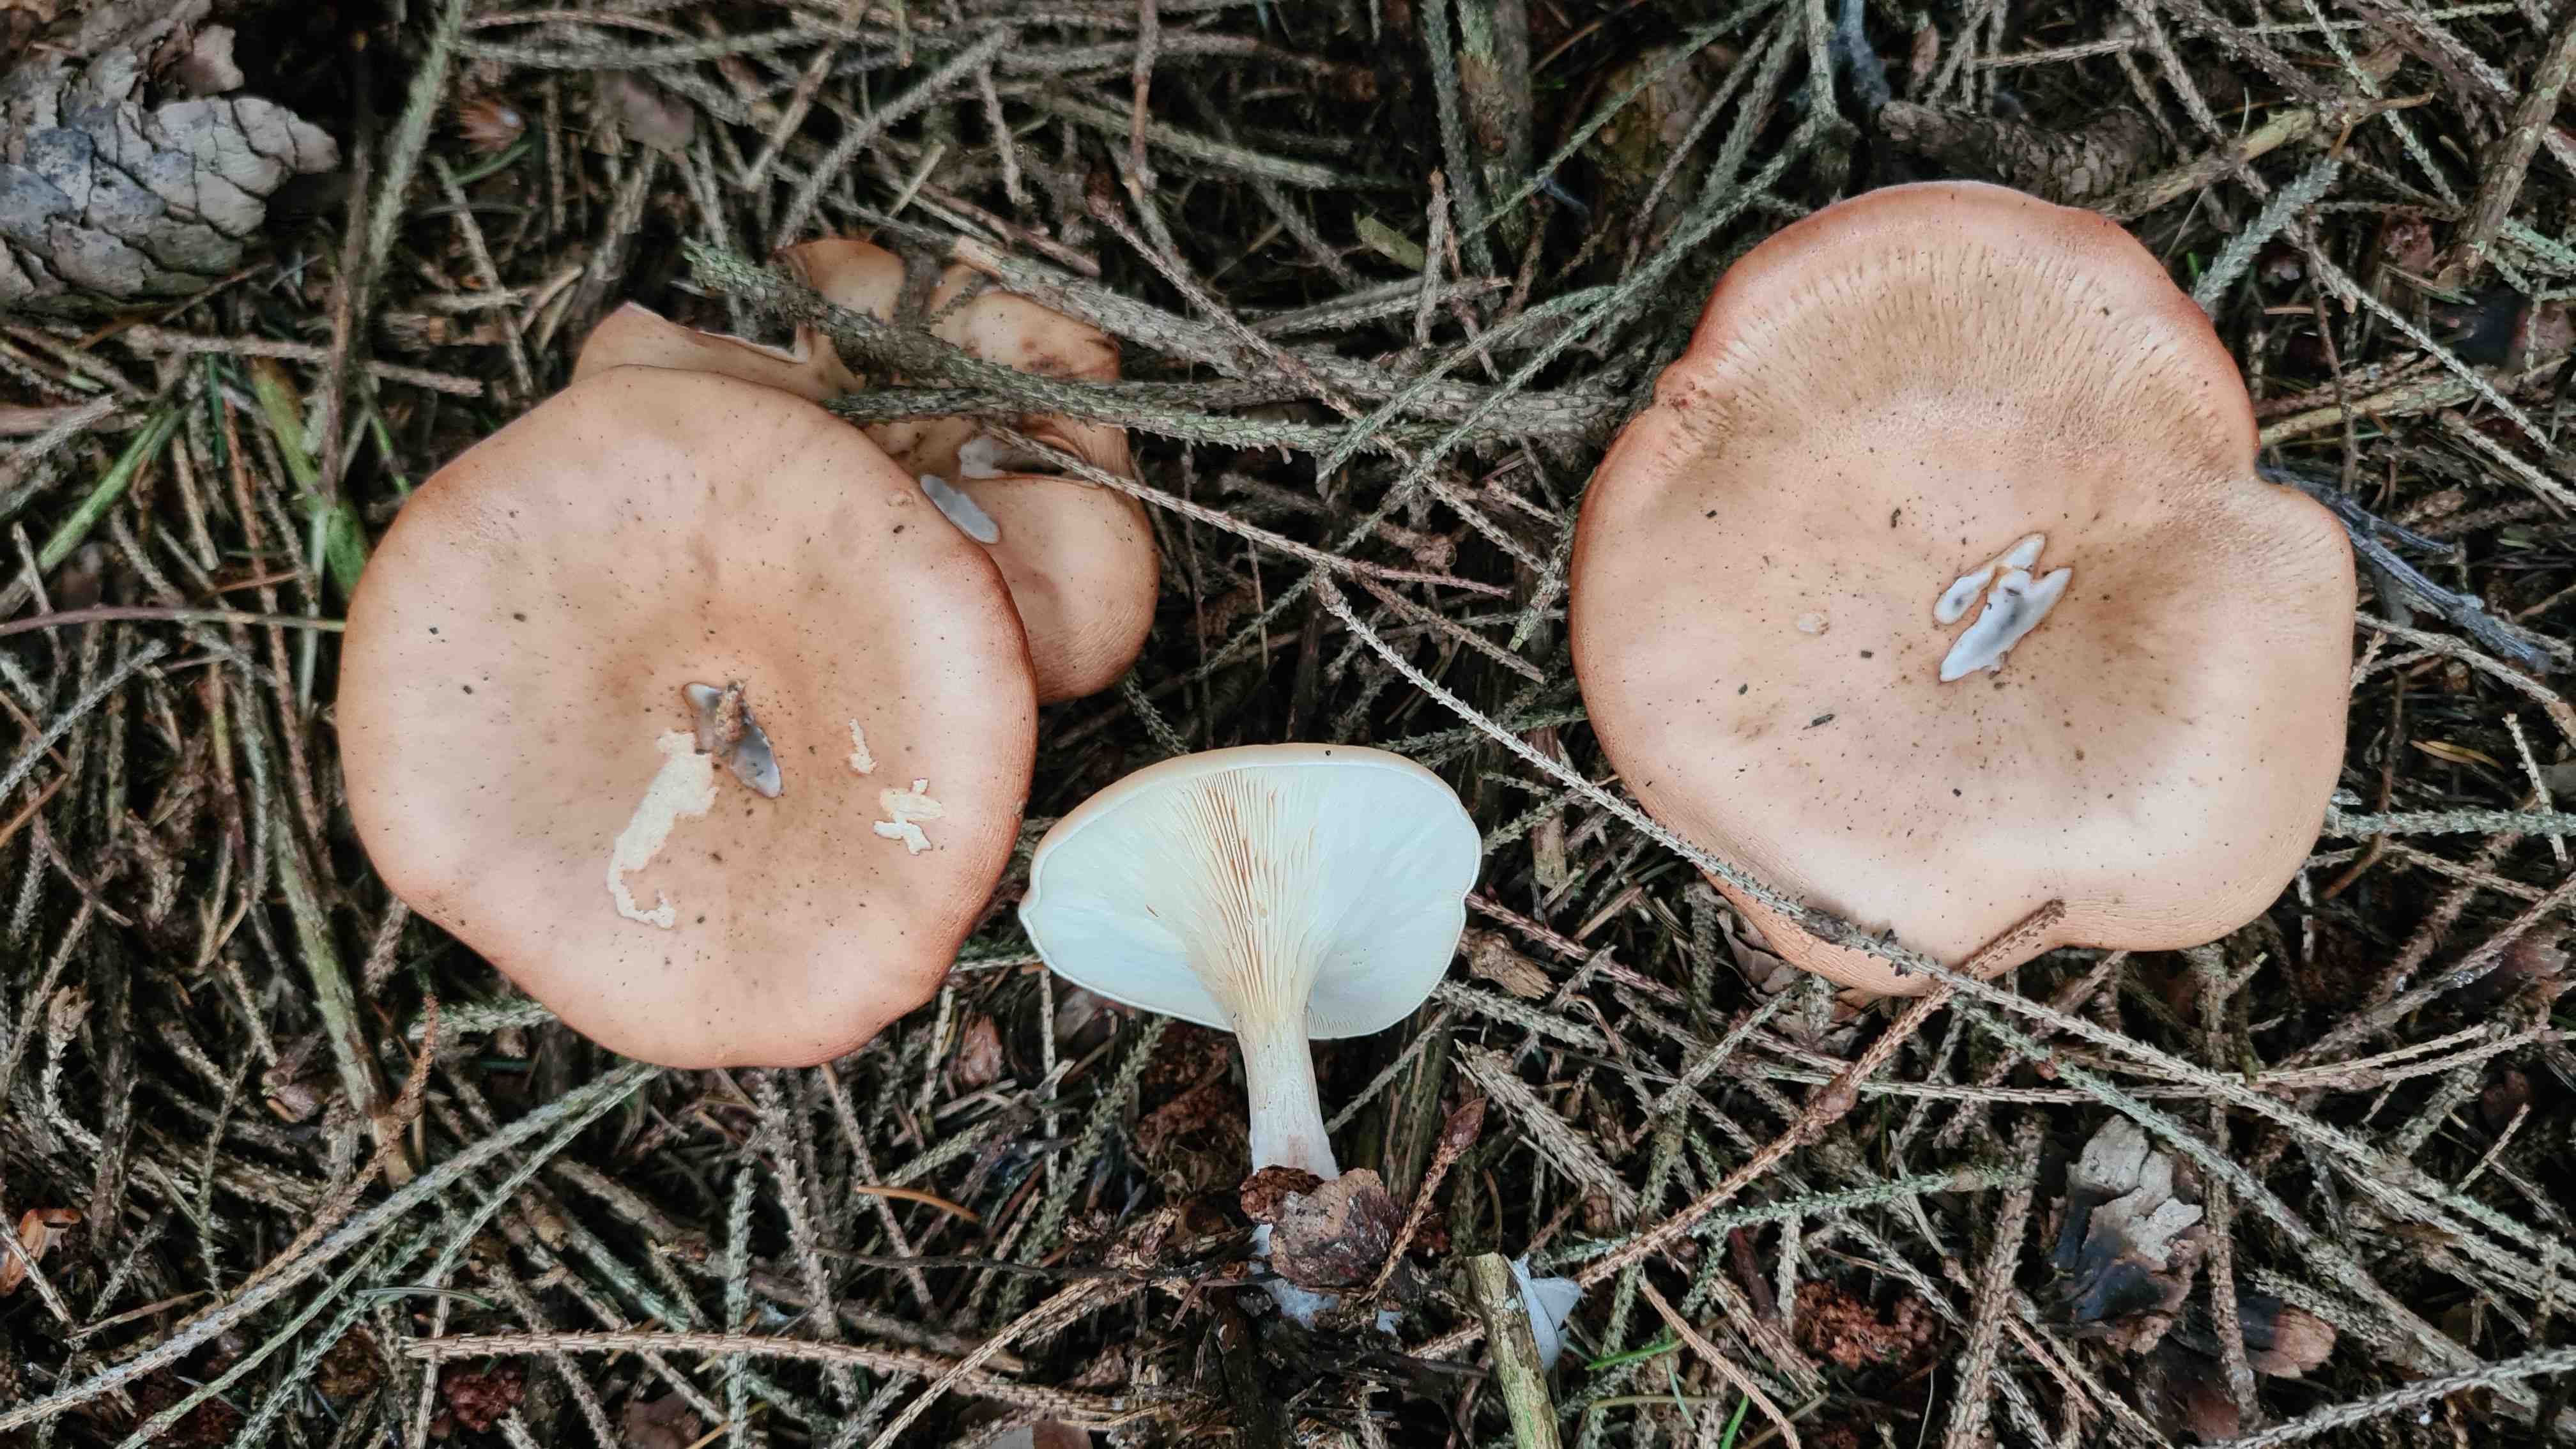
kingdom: Fungi
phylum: Basidiomycota
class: Agaricomycetes
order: Agaricales
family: Tricholomataceae
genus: Paralepista
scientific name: Paralepista flaccida
